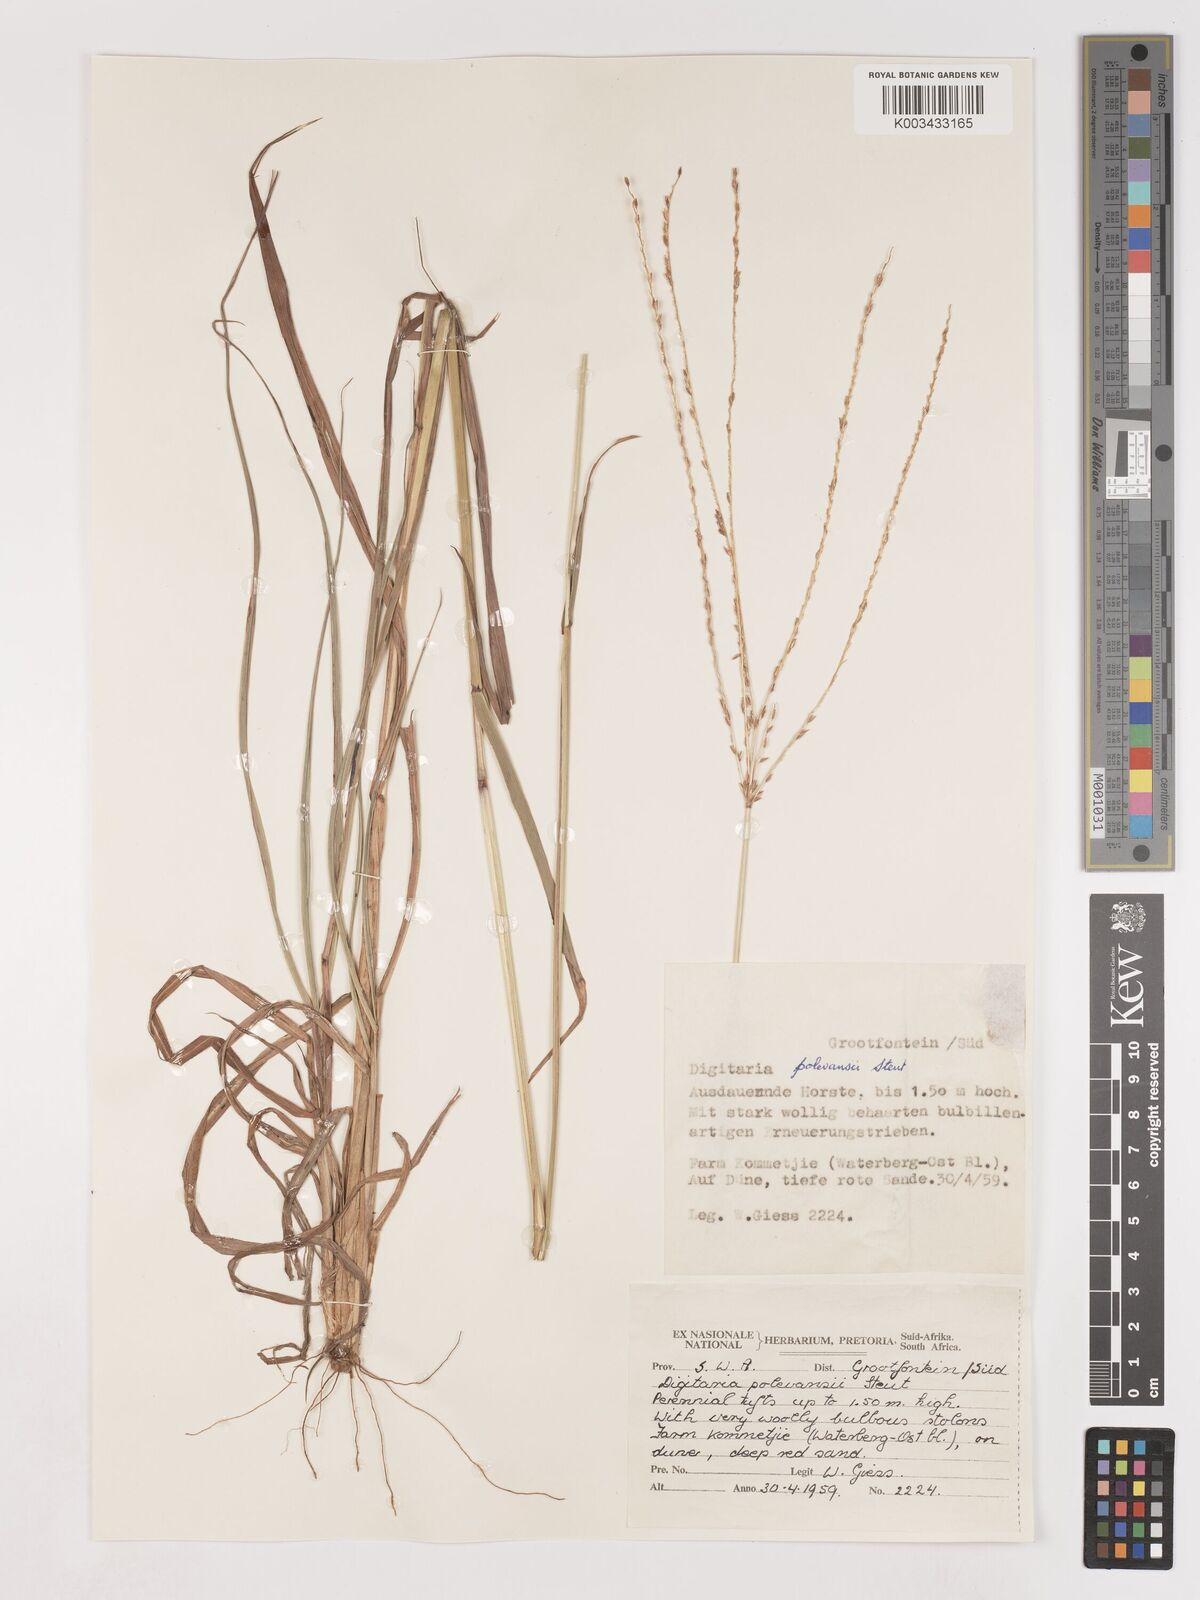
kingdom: Plantae
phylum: Tracheophyta
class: Liliopsida
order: Poales
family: Poaceae
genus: Digitaria
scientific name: Digitaria milanjiana
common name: Madagascar crabgrass
